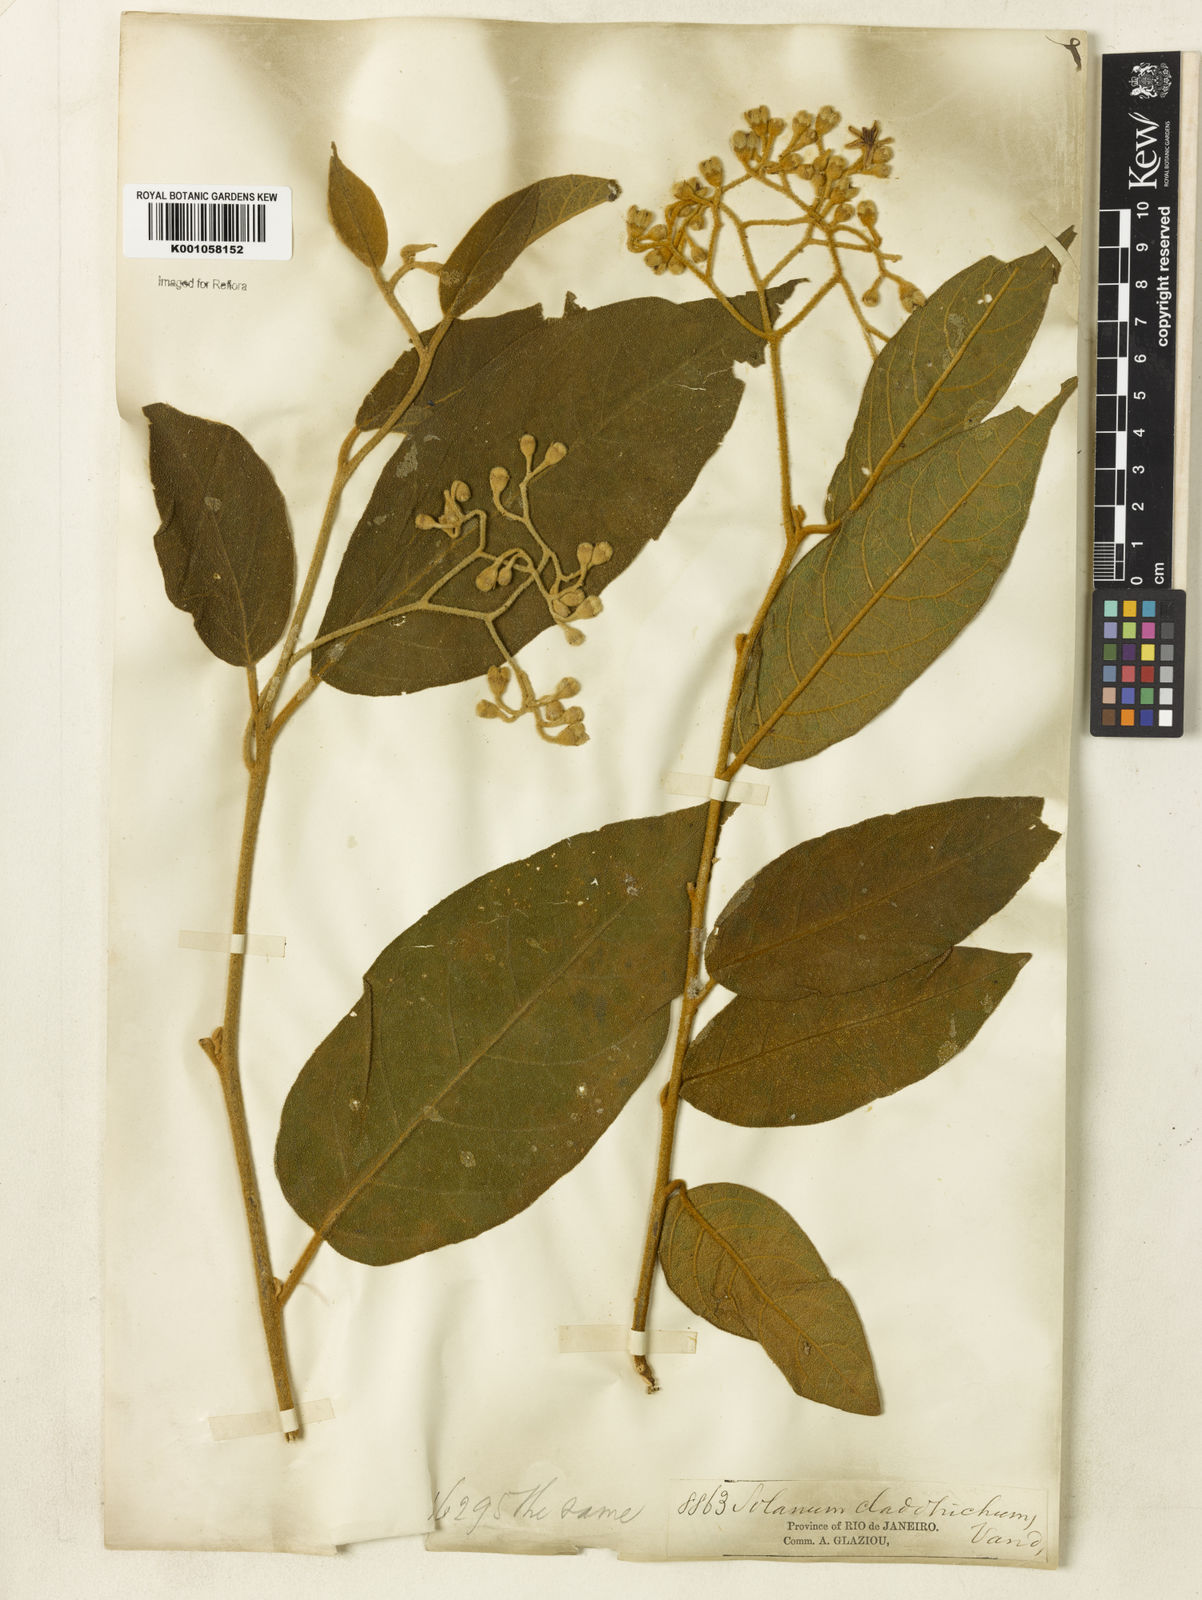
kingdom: Plantae
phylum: Tracheophyta
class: Magnoliopsida
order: Solanales
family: Solanaceae
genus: Solanum
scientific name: Solanum jussiaei
